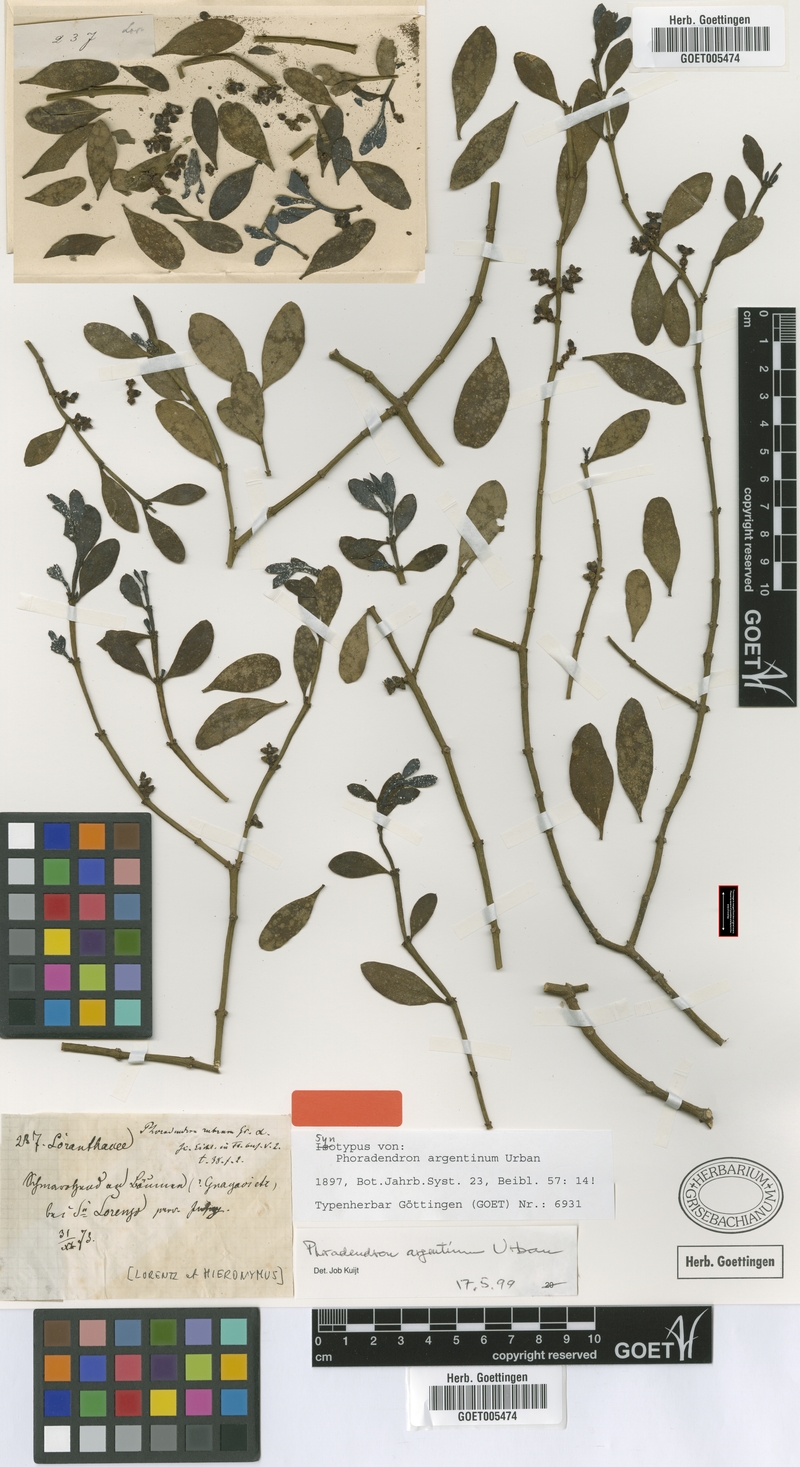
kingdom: Plantae
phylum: Tracheophyta
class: Magnoliopsida
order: Santalales
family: Viscaceae
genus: Phoradendron
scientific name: Phoradendron argentinum
